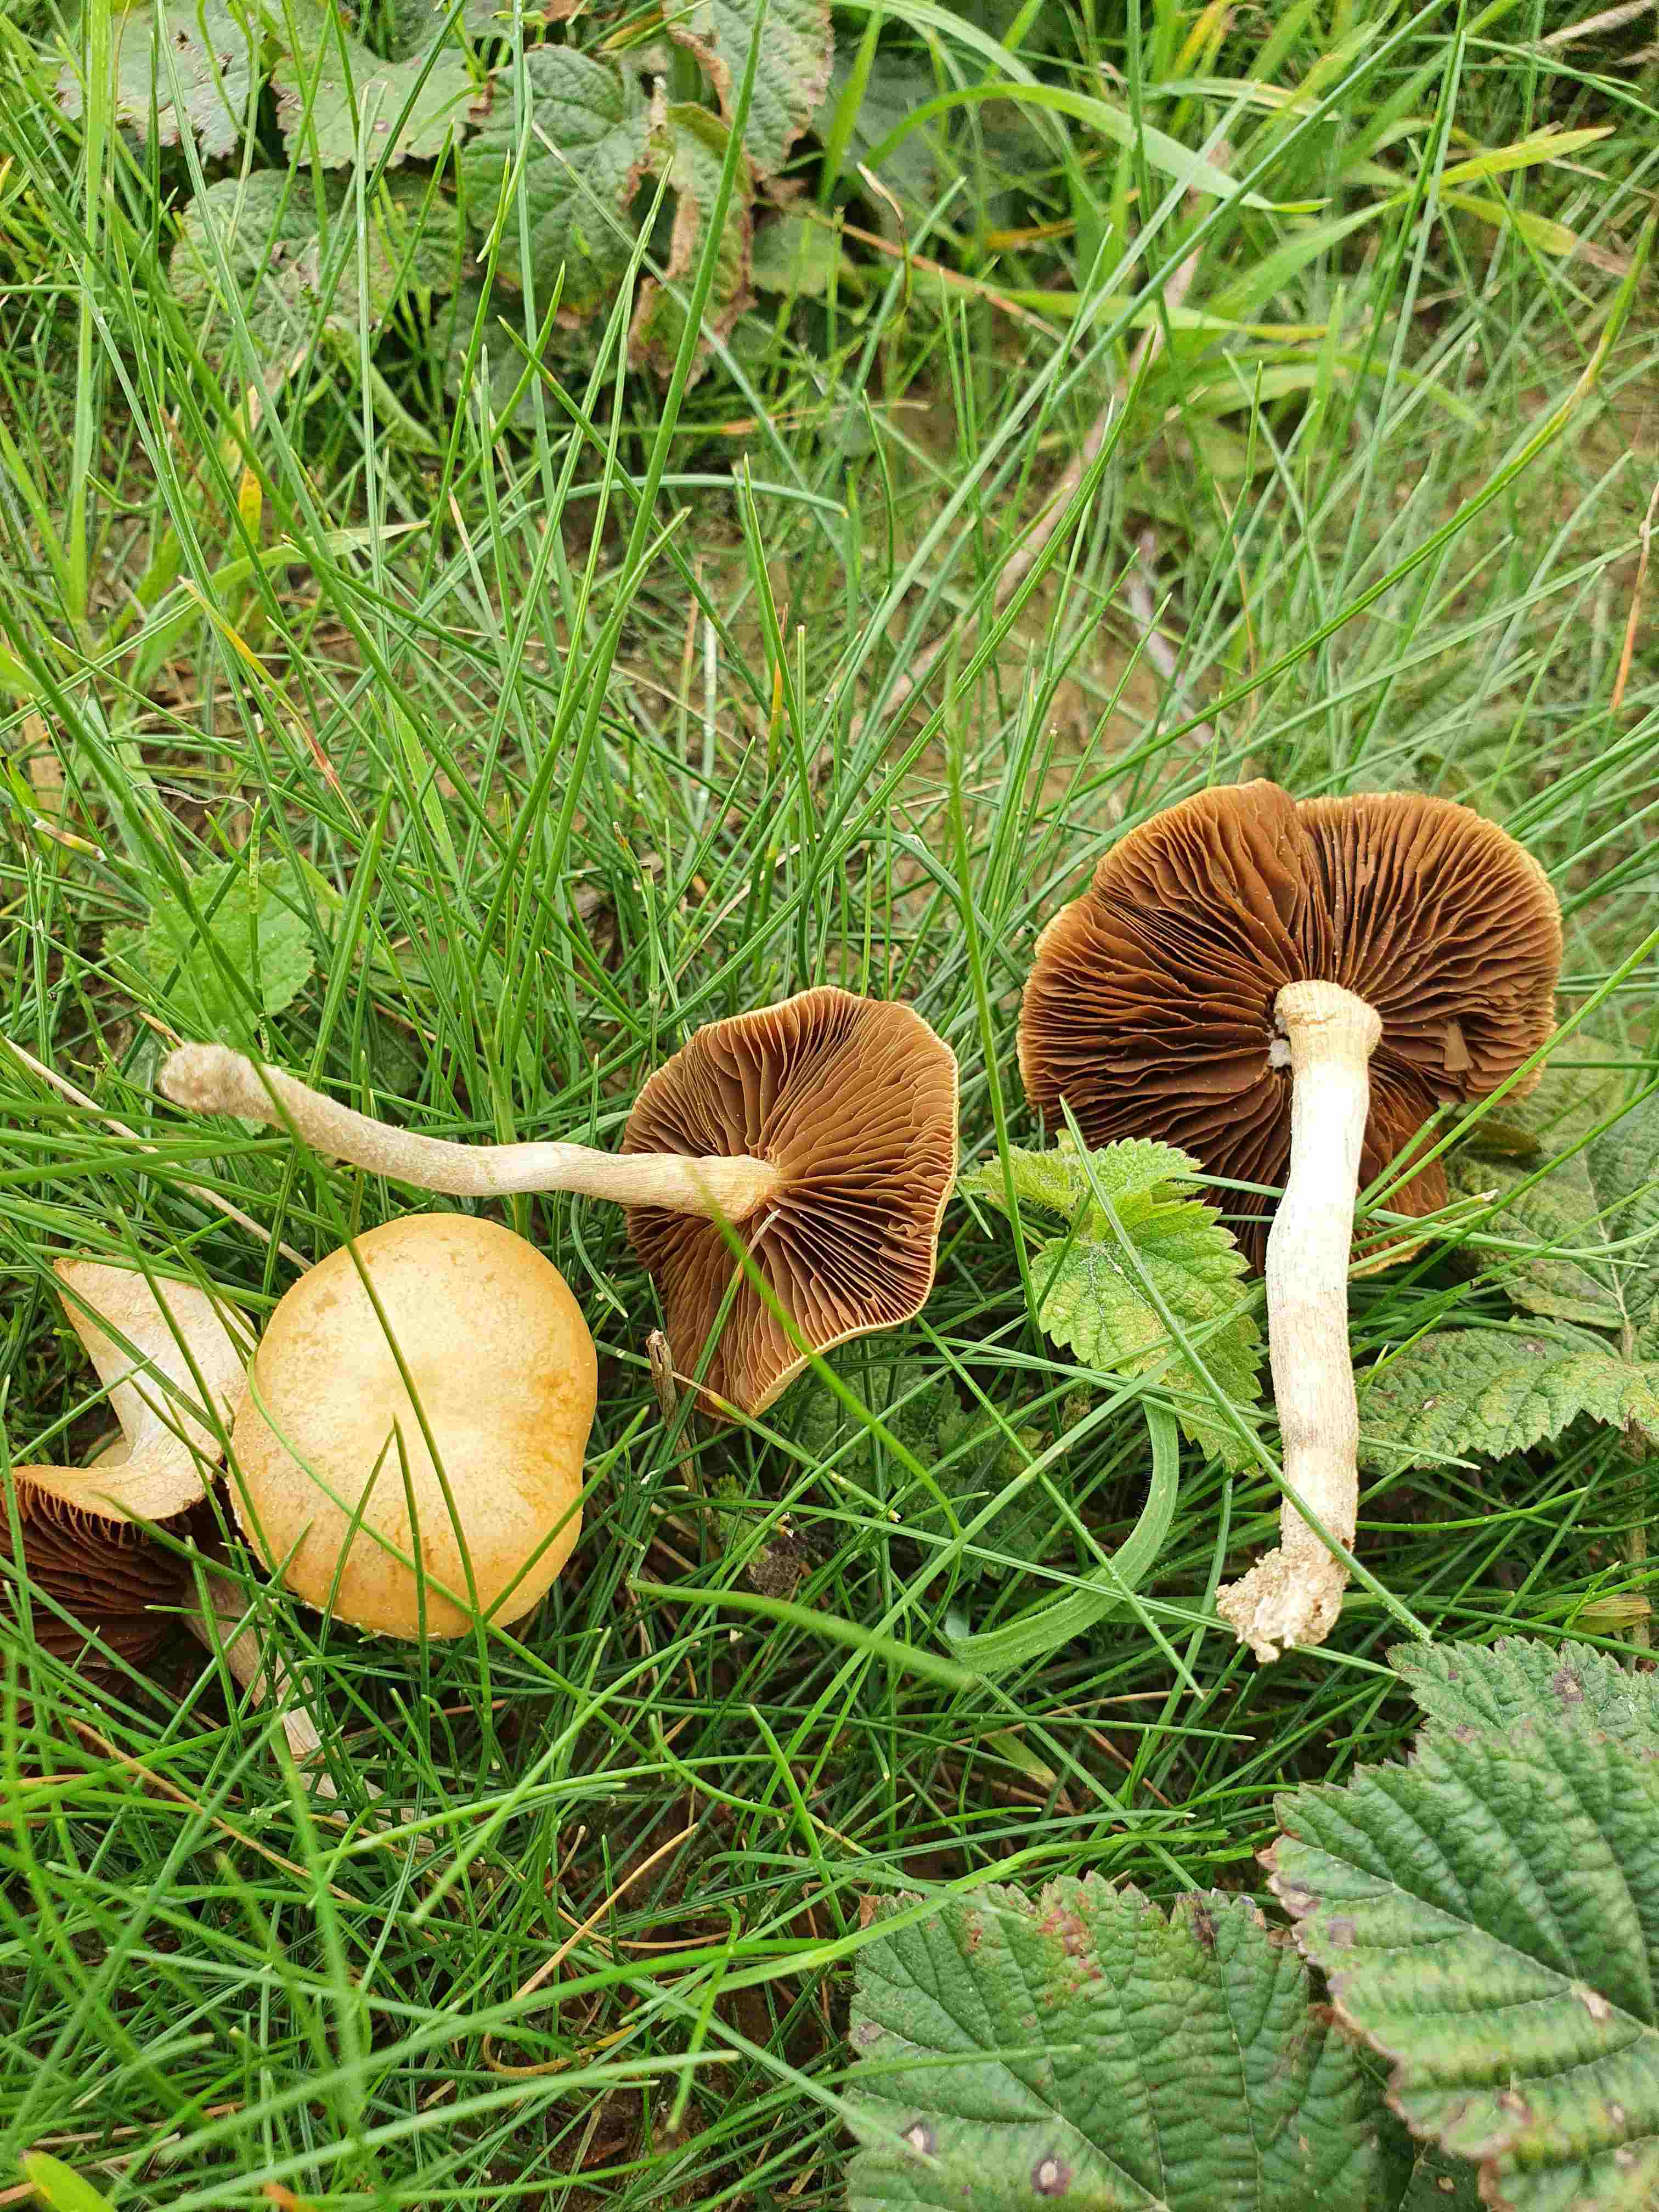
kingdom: Fungi
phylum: Basidiomycota
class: Agaricomycetes
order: Agaricales
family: Strophariaceae
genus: Agrocybe
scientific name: Agrocybe pediades
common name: almindelig agerhat
